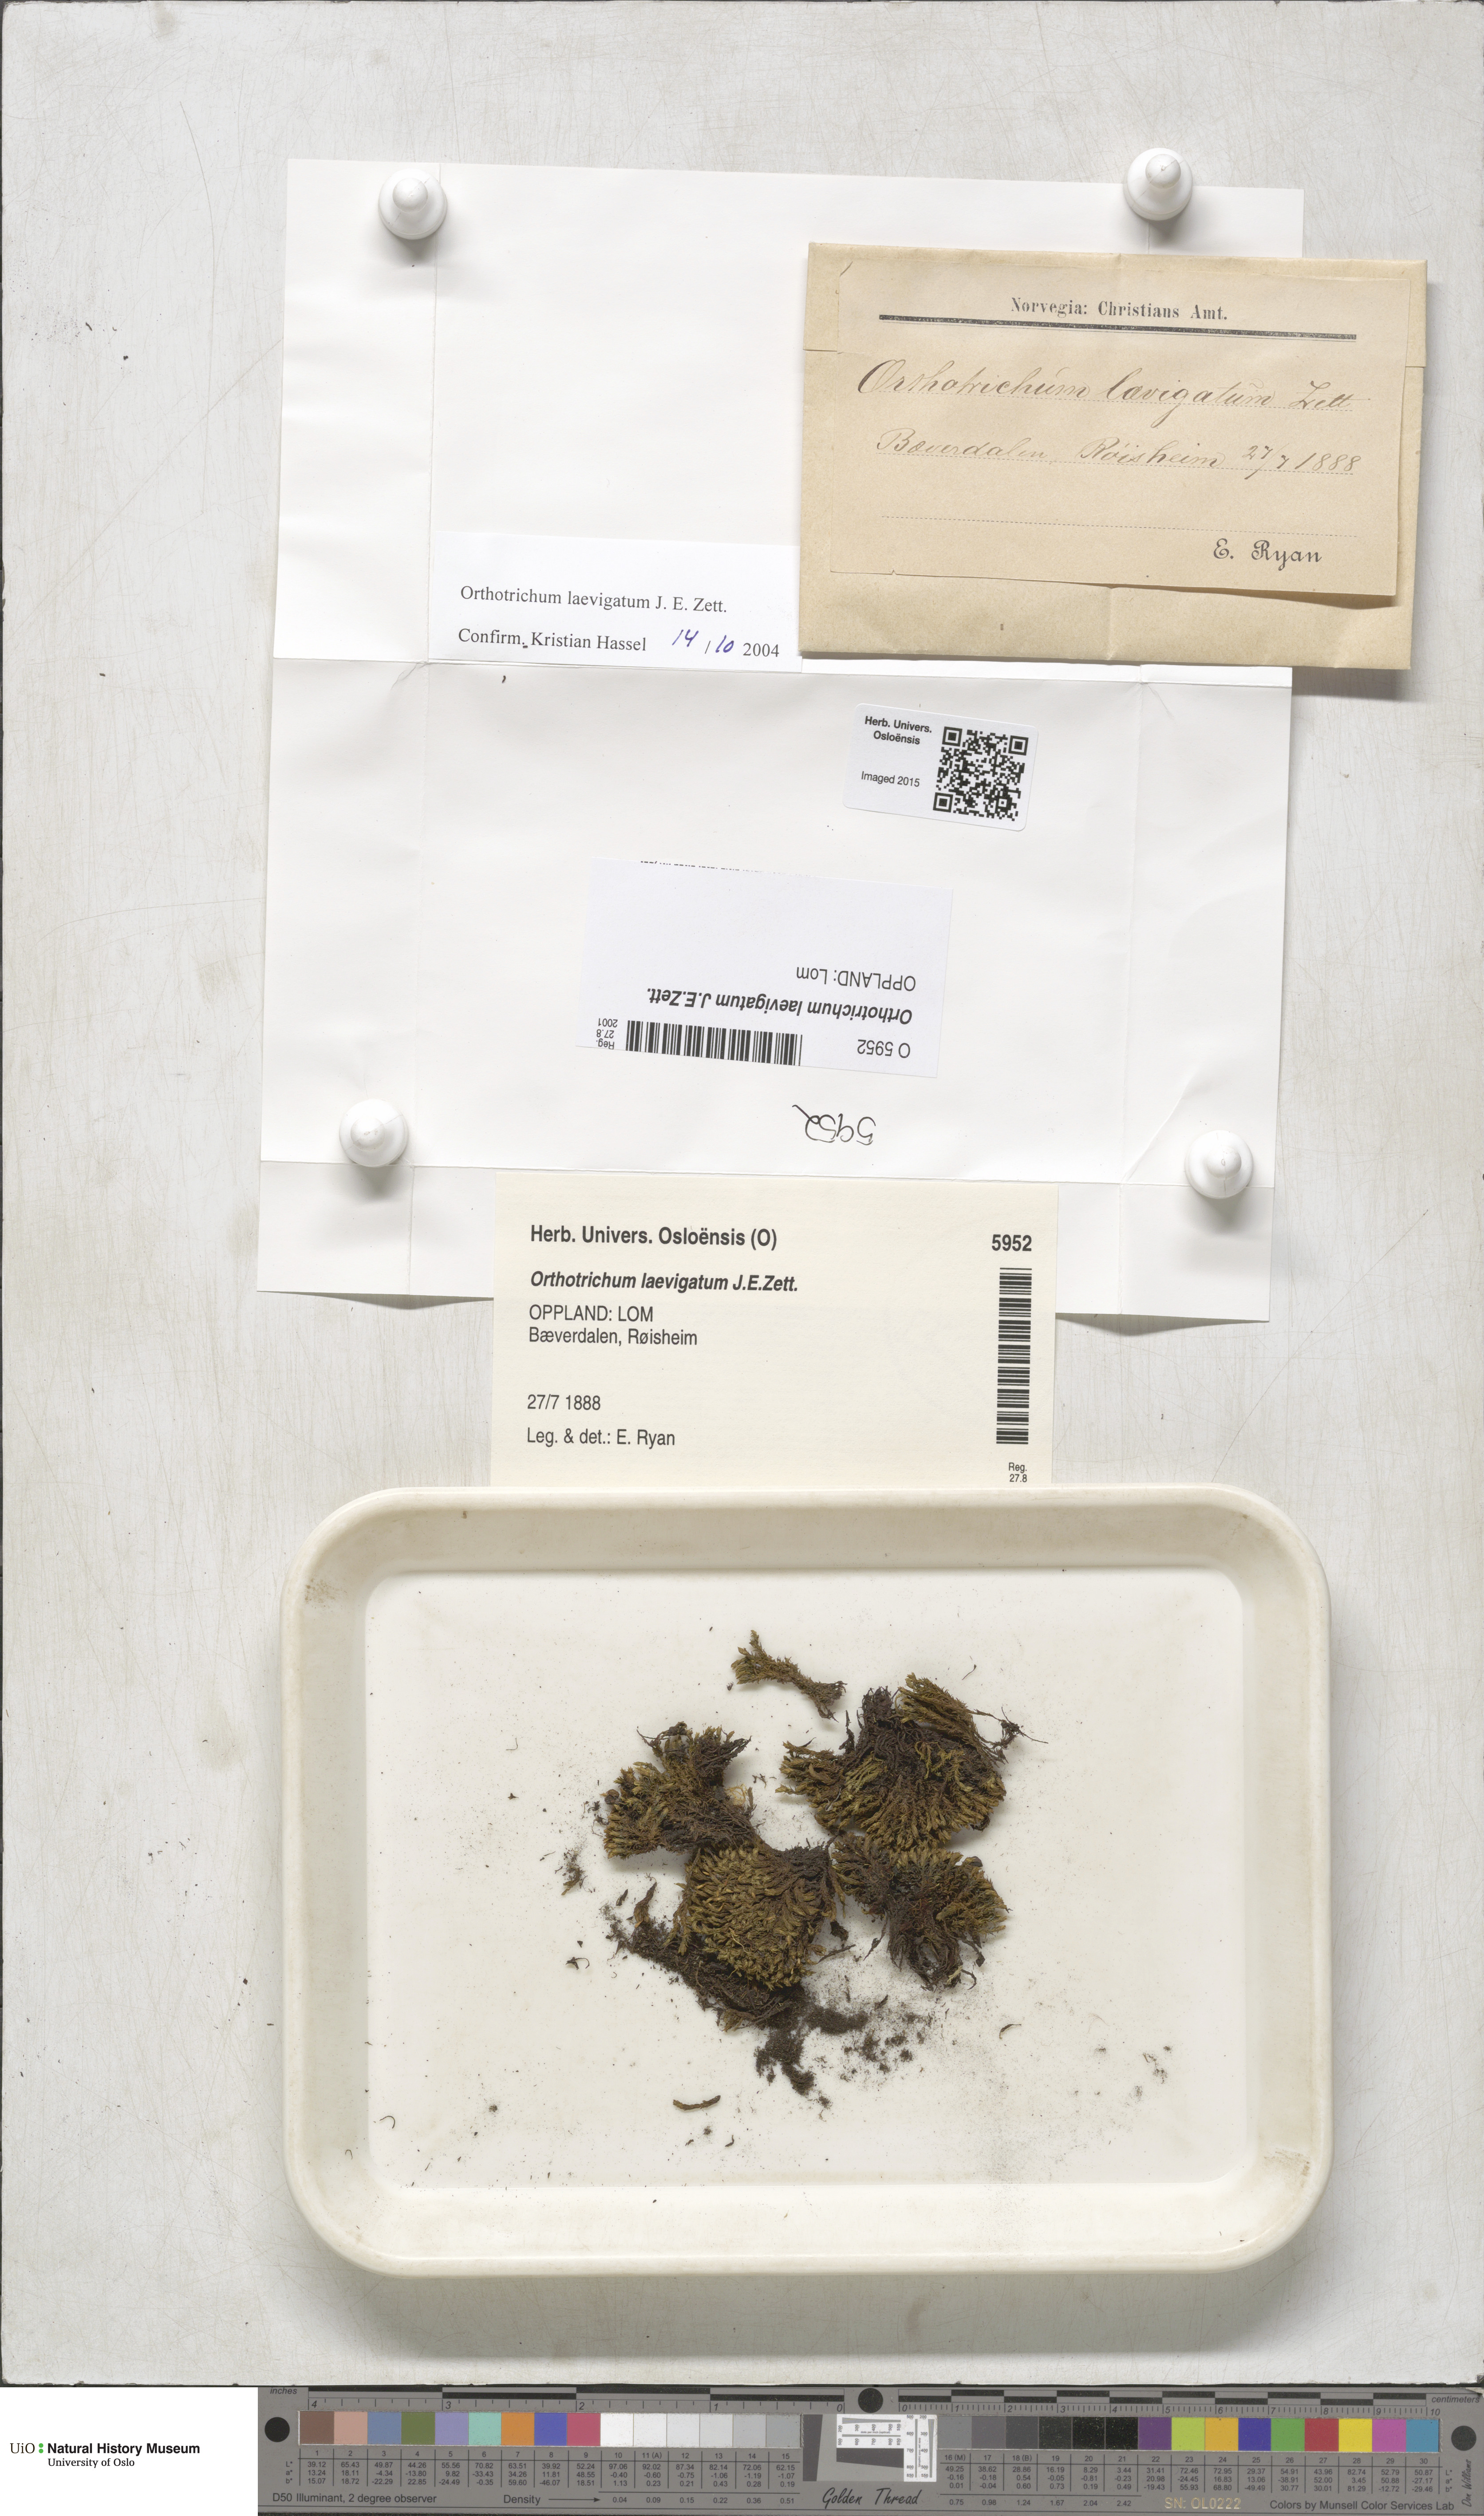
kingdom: Plantae
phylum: Bryophyta
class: Bryopsida
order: Orthotrichales
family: Orthotrichaceae
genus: Lewinskya
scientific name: Lewinskya laevigata
